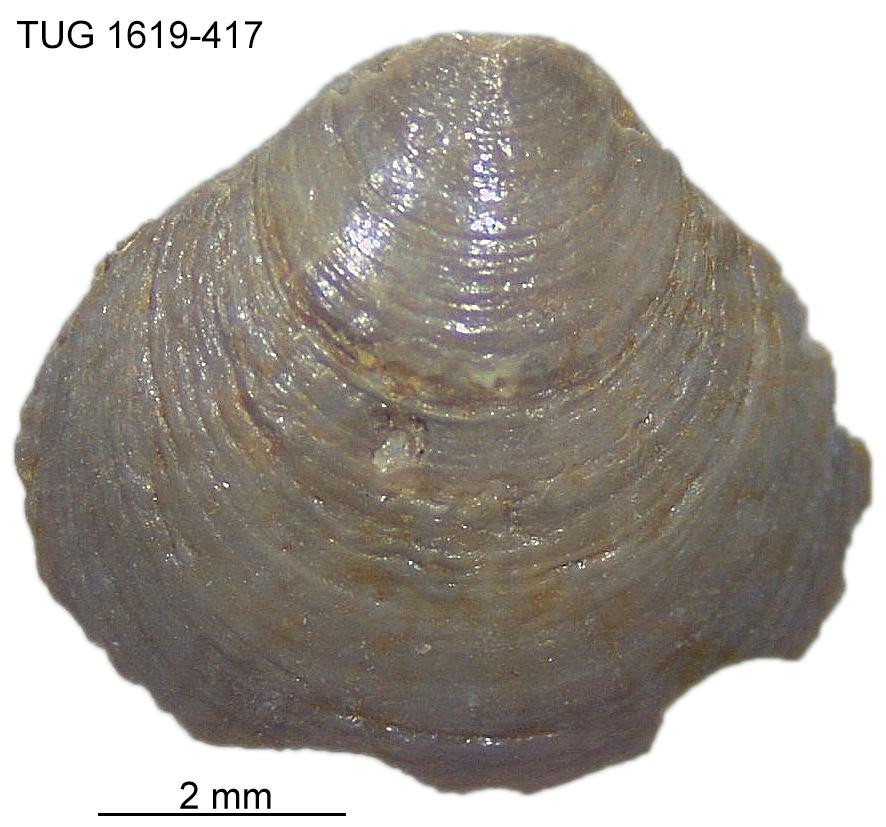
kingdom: Animalia
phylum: Porifera
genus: Ungula
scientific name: Ungula
